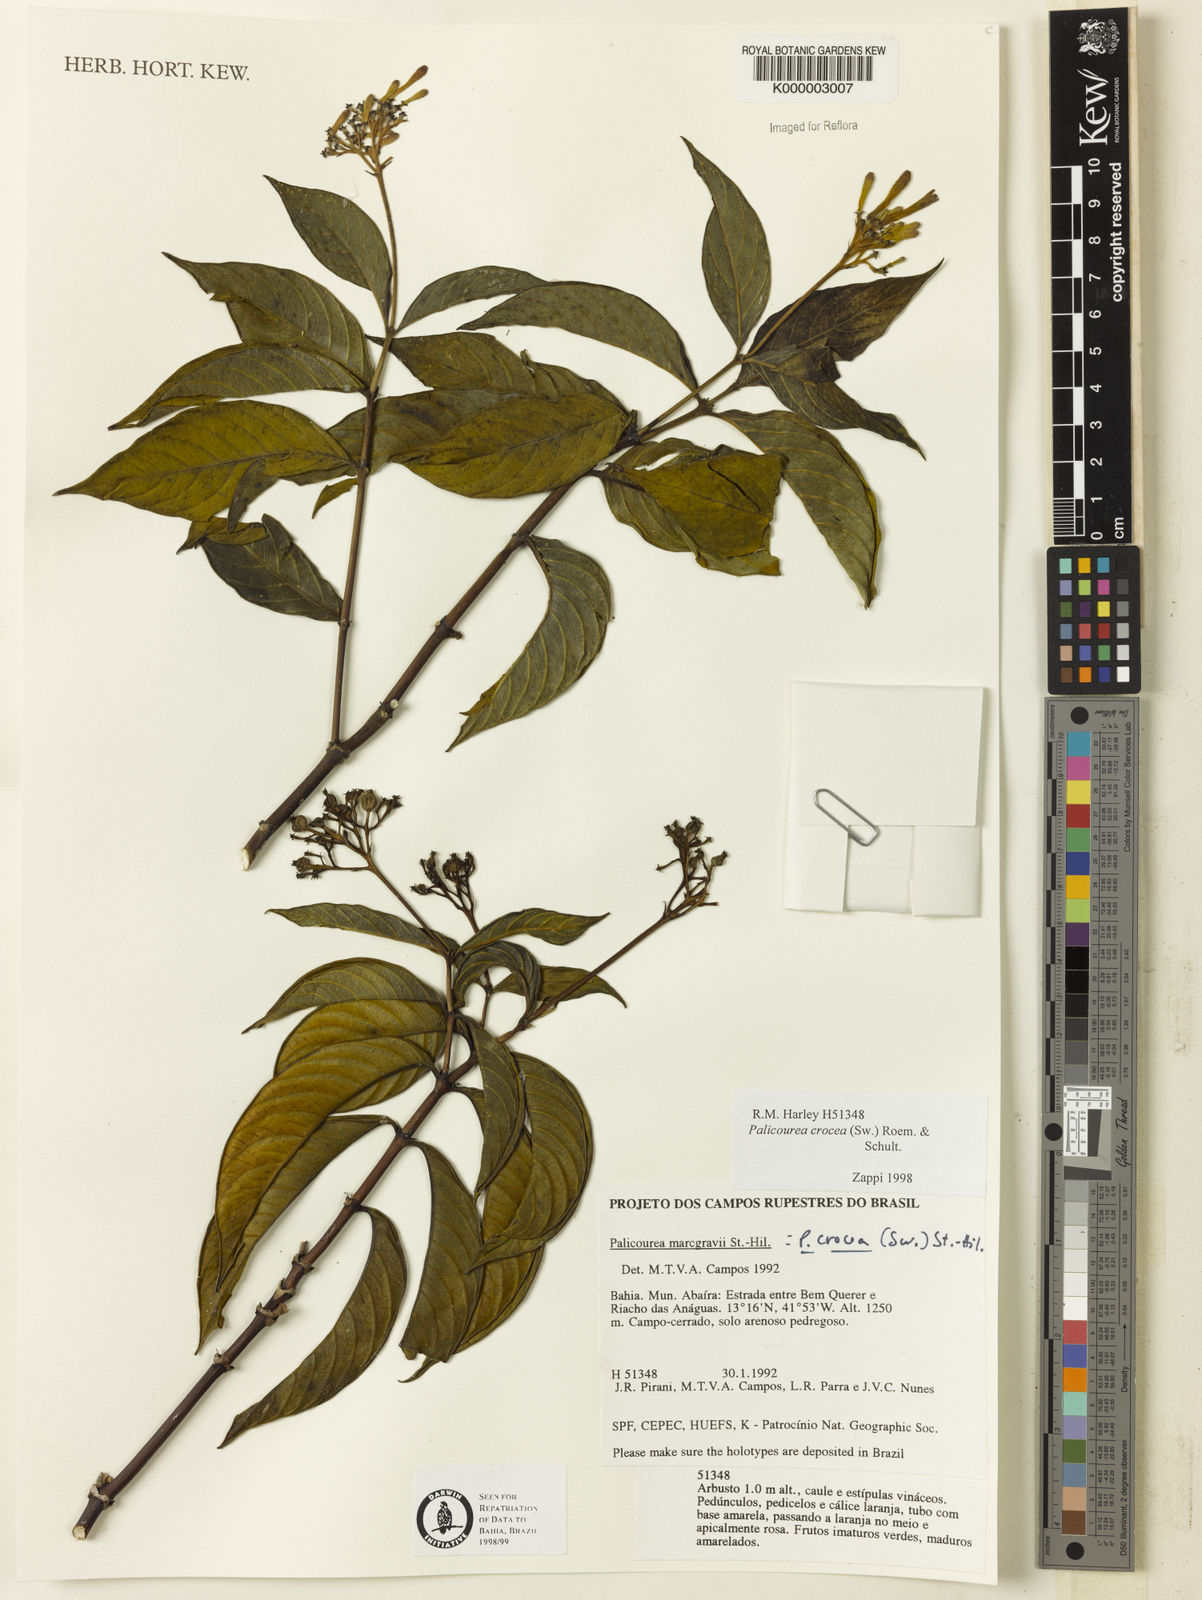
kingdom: Plantae
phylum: Tracheophyta
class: Magnoliopsida
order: Gentianales
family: Rubiaceae
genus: Palicourea
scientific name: Palicourea marcgravii
